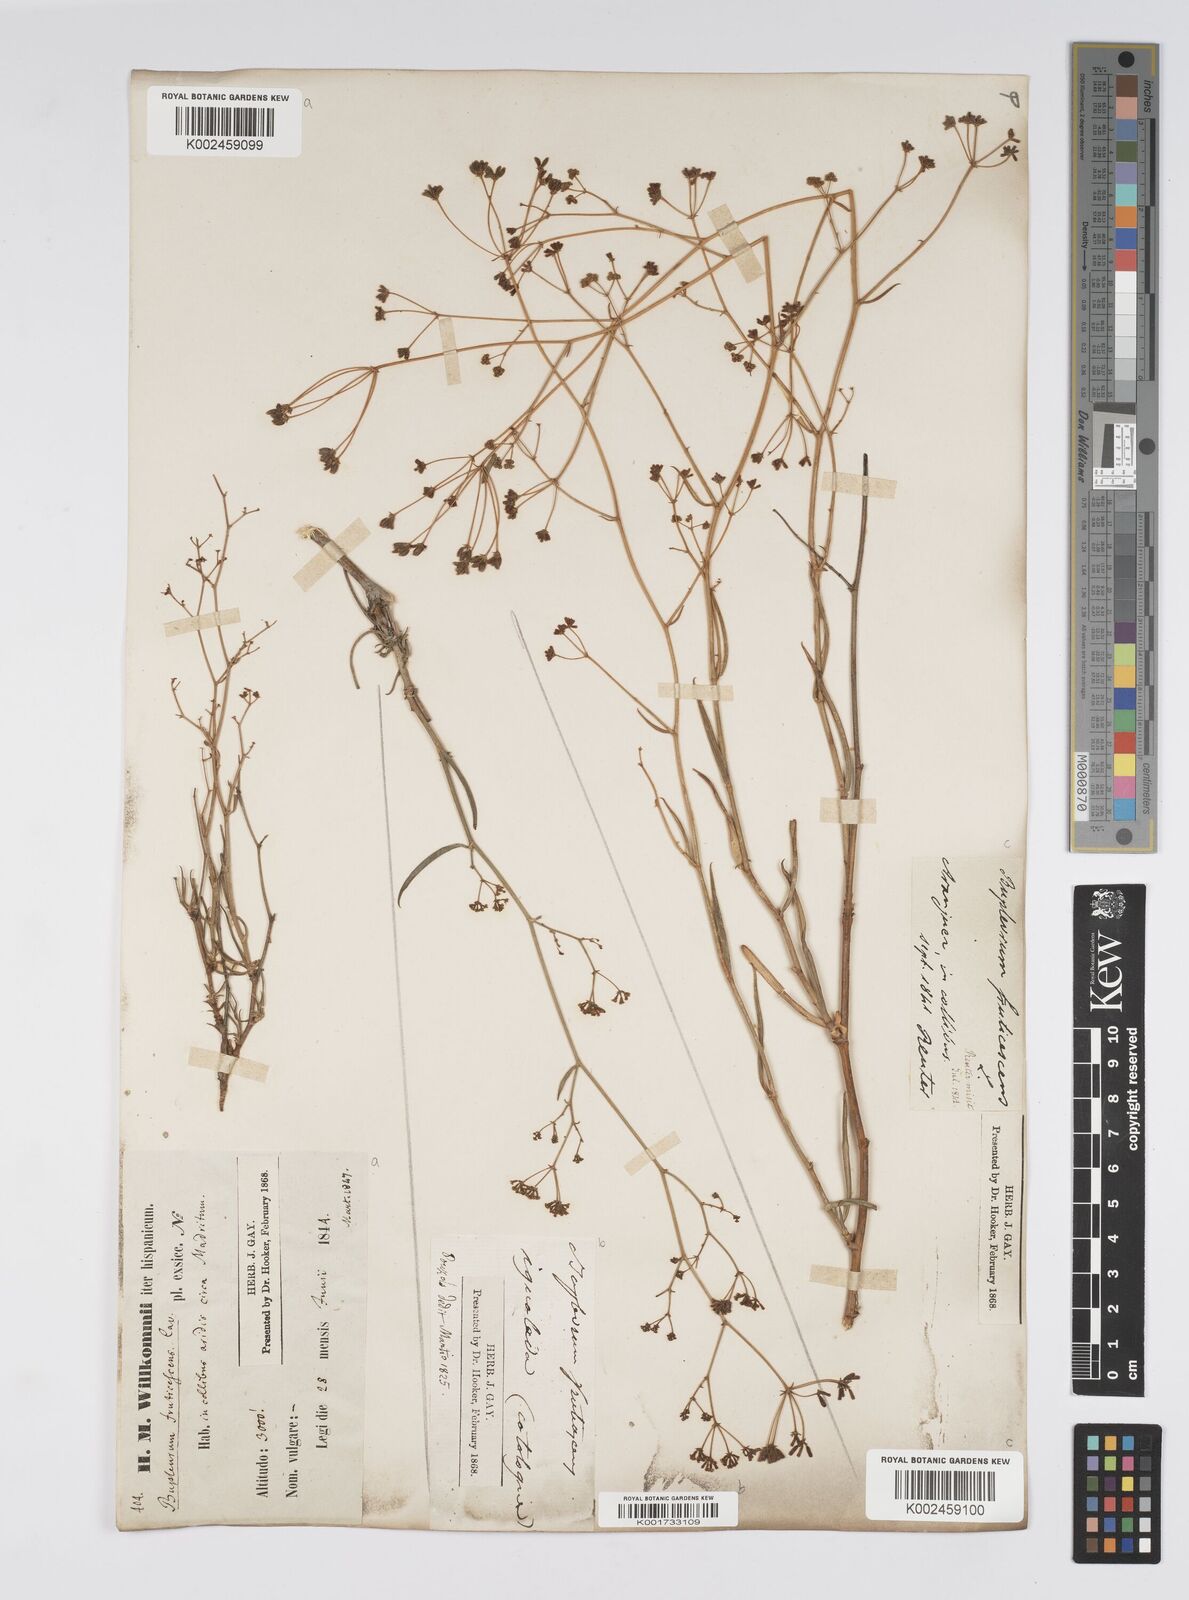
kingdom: Plantae
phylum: Tracheophyta
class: Magnoliopsida
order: Apiales
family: Apiaceae
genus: Bupleurum
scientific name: Bupleurum fruticescens
